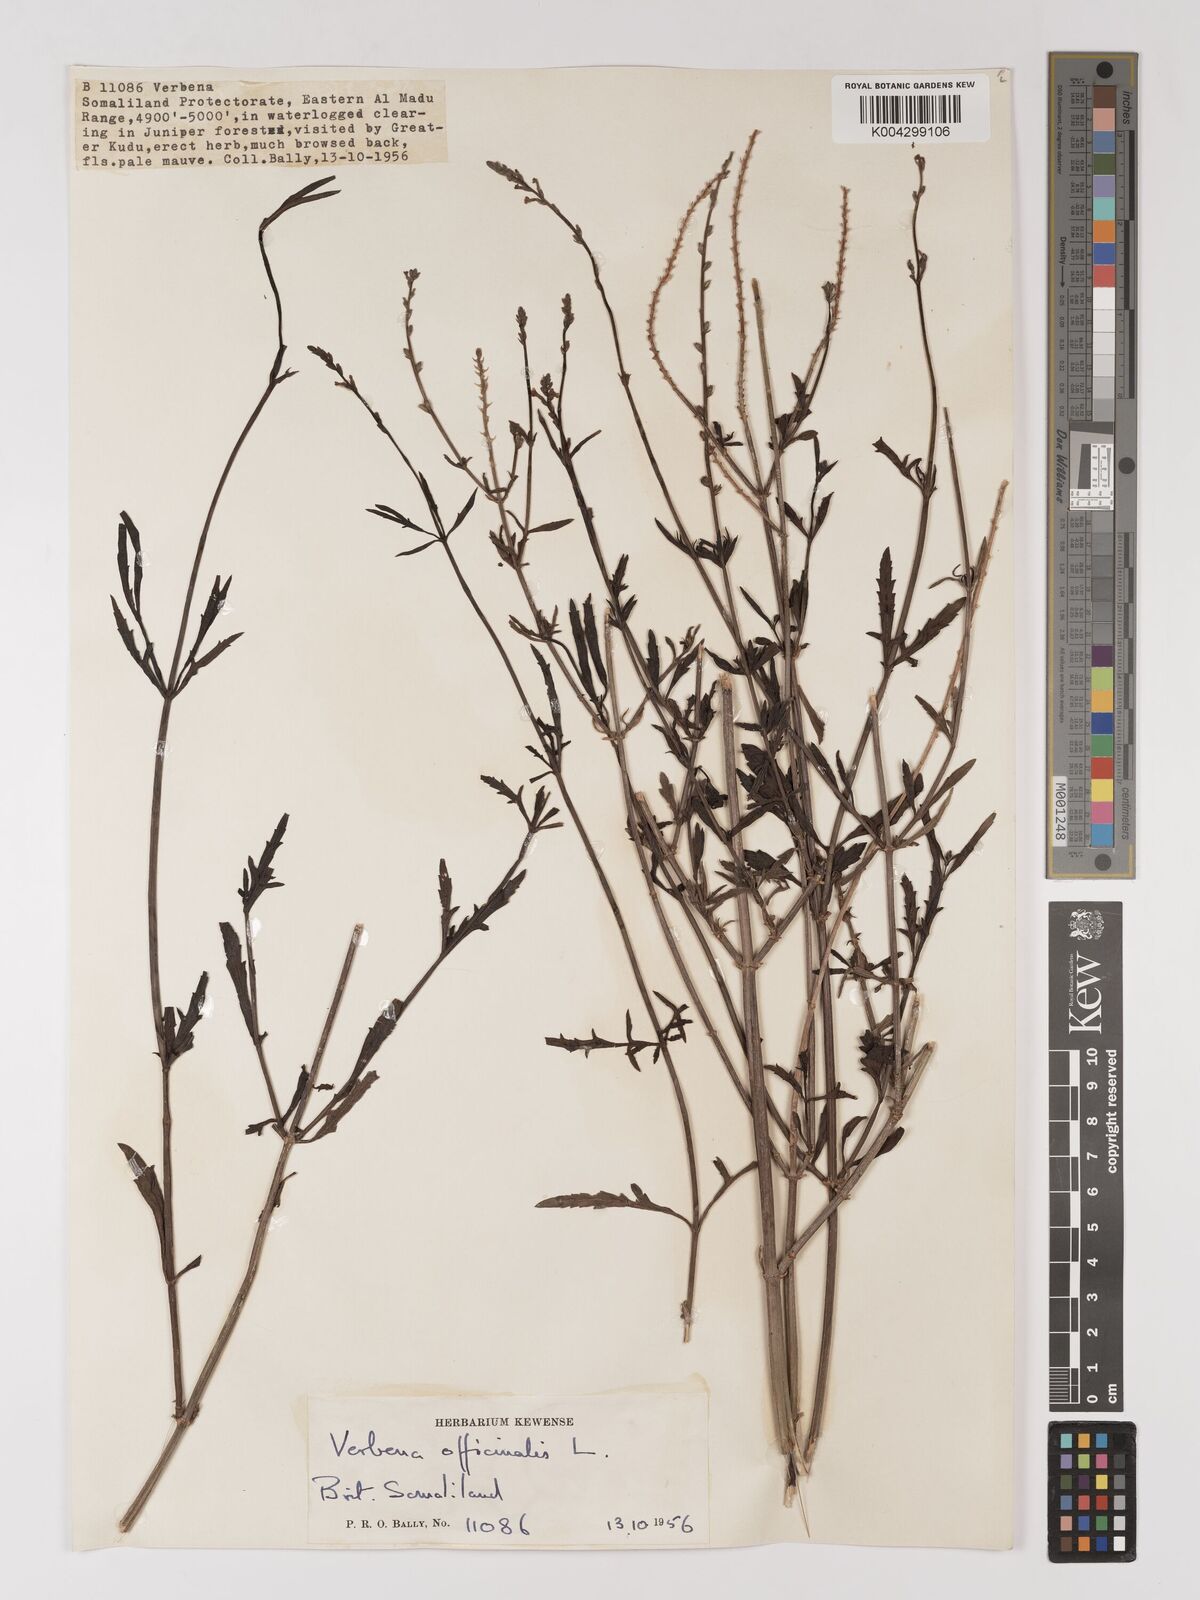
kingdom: Plantae
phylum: Tracheophyta
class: Magnoliopsida
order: Lamiales
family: Verbenaceae
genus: Verbena
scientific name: Verbena officinalis
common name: Vervain
